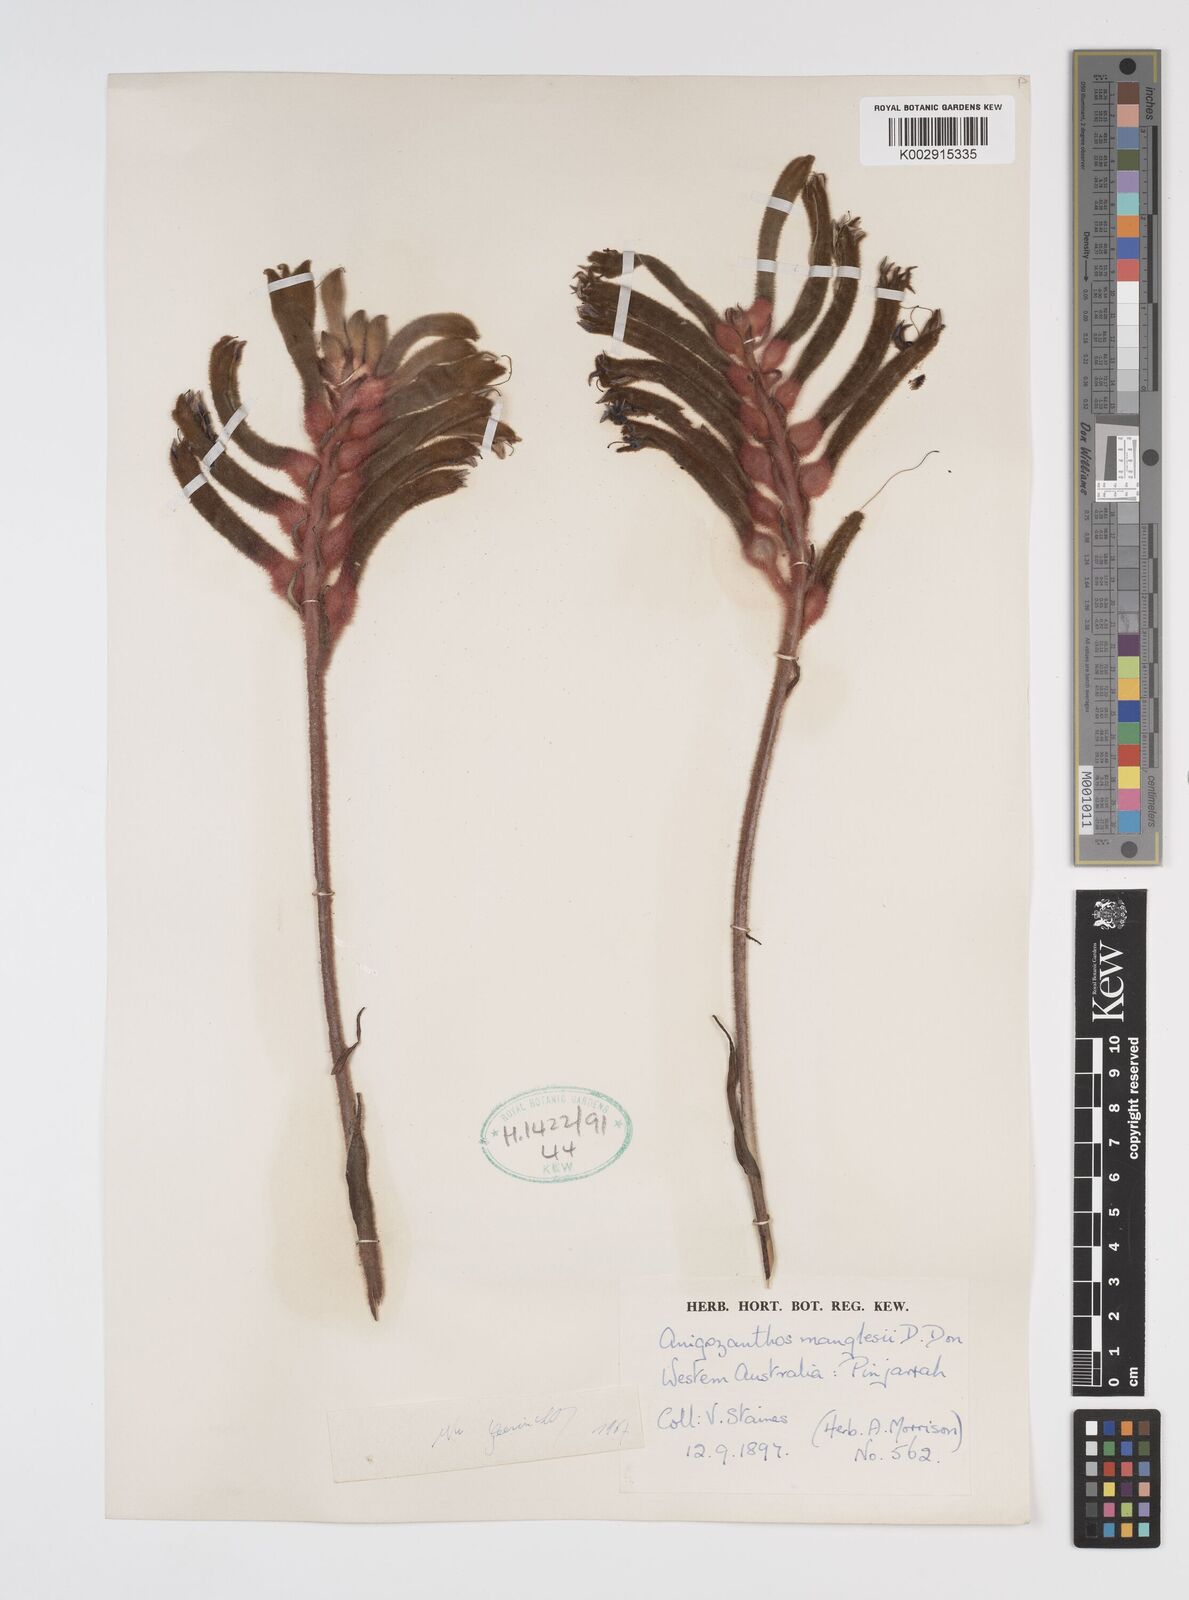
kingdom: Plantae
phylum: Tracheophyta
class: Liliopsida
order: Commelinales
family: Haemodoraceae
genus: Anigozanthos
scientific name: Anigozanthos manglesii
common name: Mangles's kangaroo-paw
